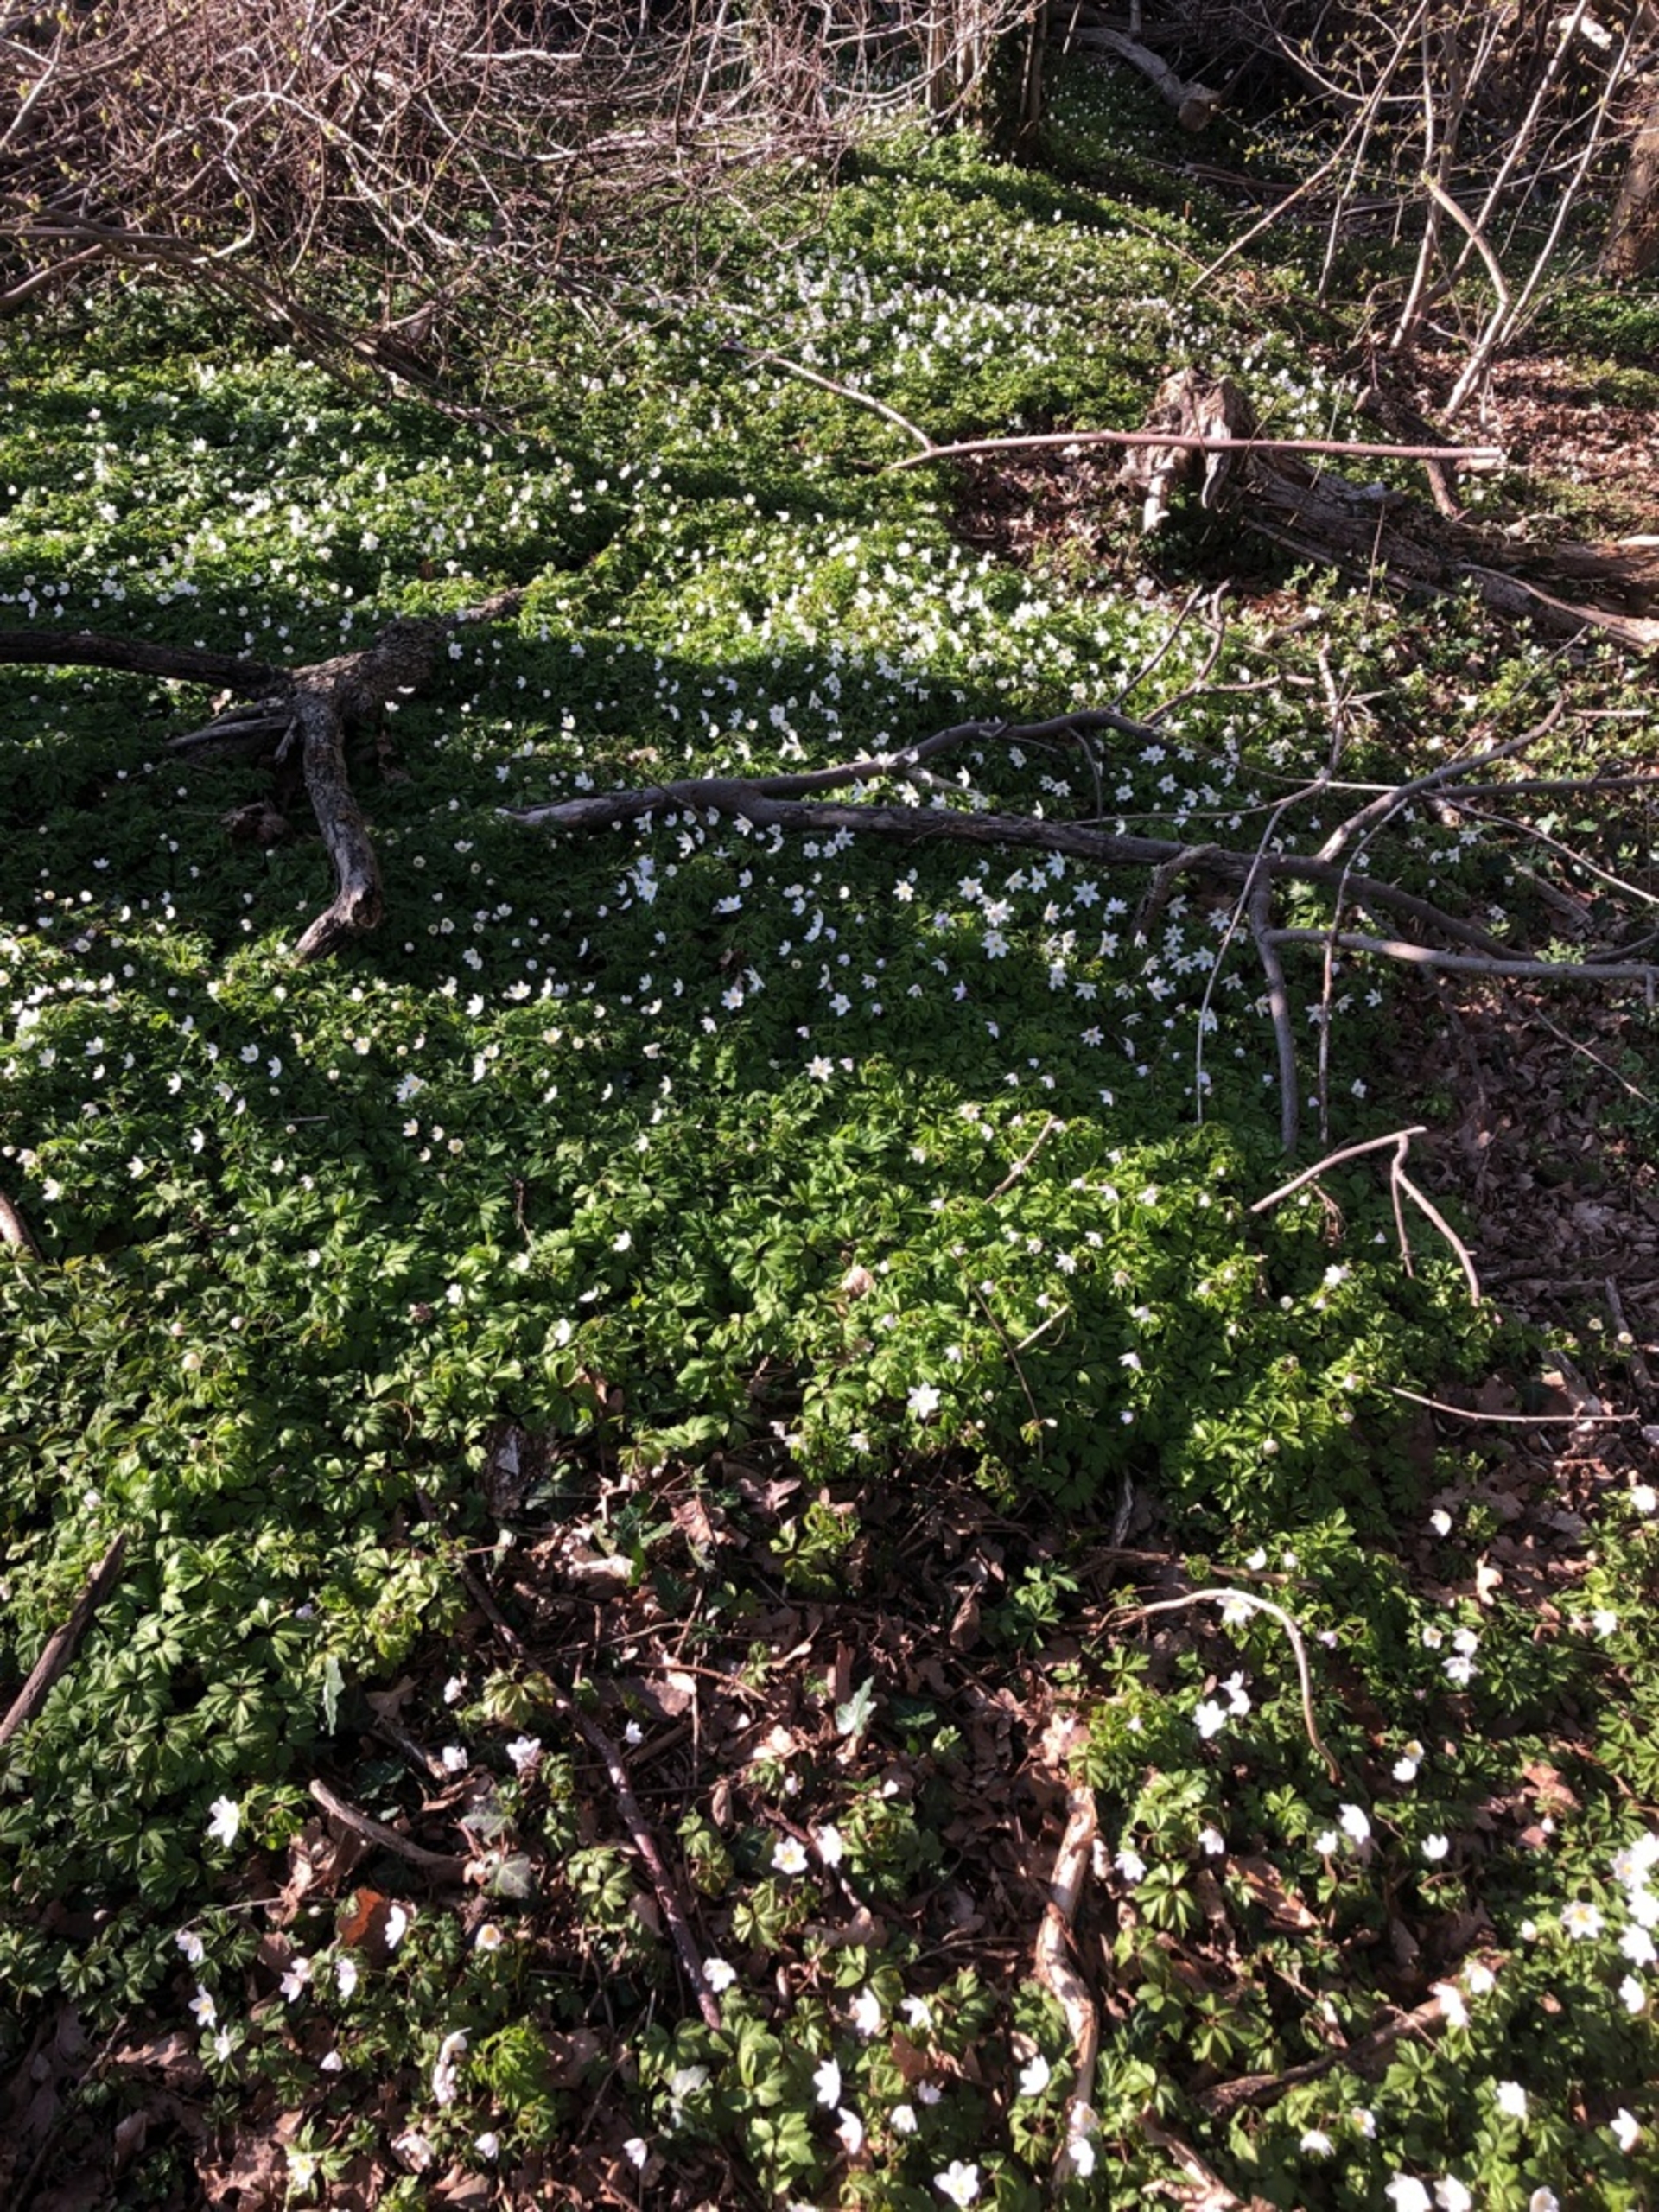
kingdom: Plantae
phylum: Tracheophyta
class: Magnoliopsida
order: Ranunculales
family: Ranunculaceae
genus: Anemone
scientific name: Anemone nemorosa
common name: Hvid anemone
